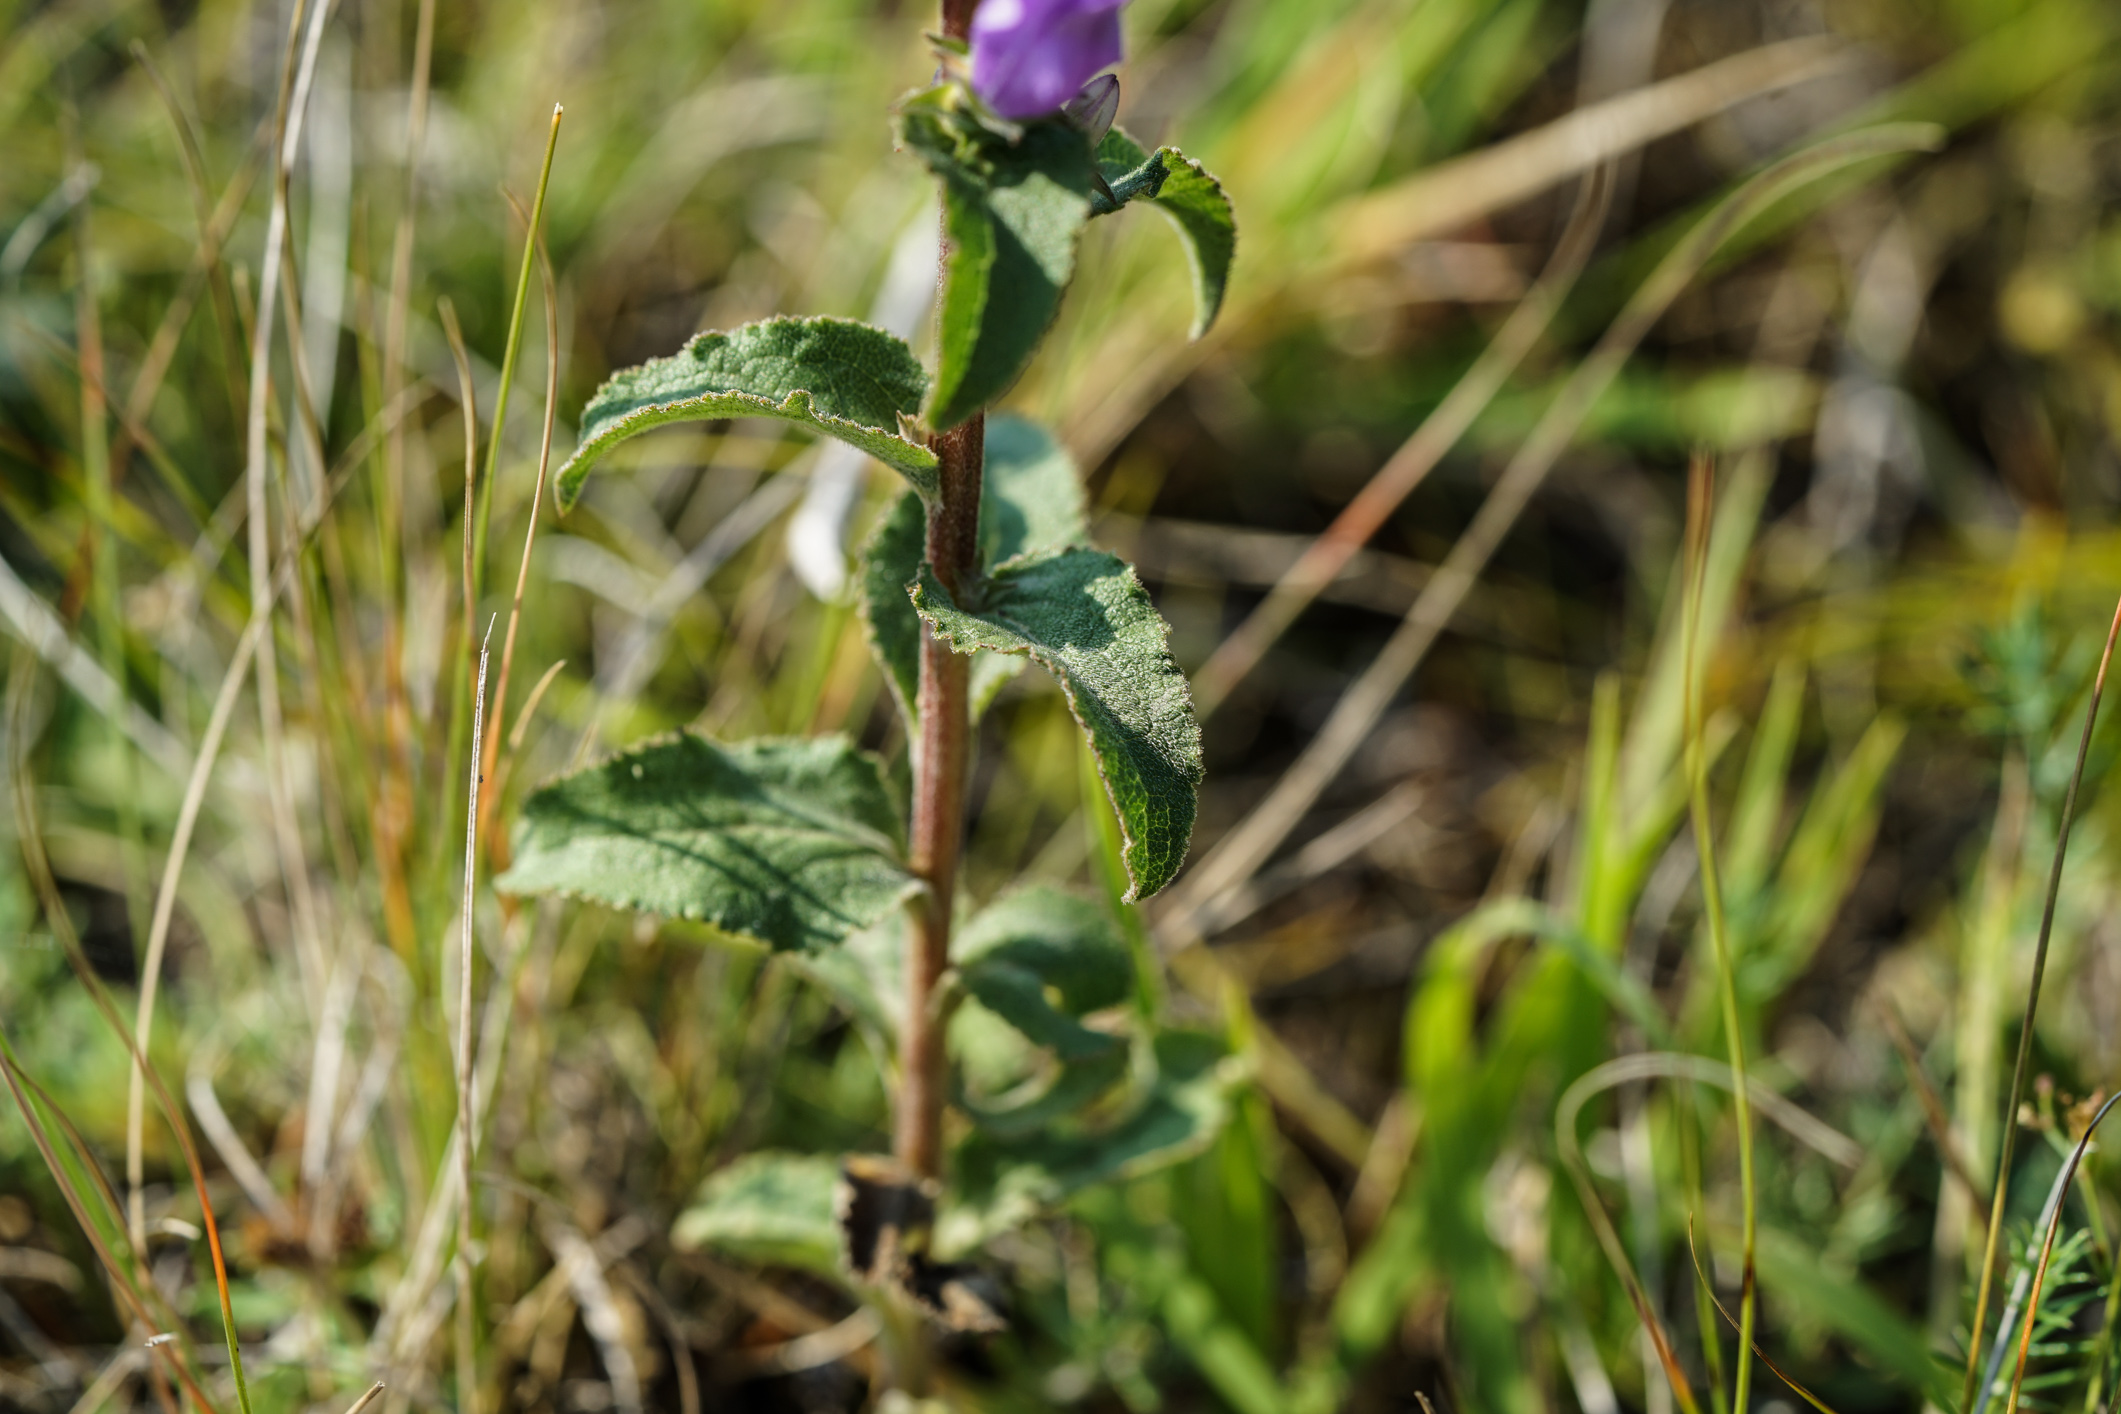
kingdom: Plantae
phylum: Tracheophyta
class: Magnoliopsida
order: Asterales
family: Campanulaceae
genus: Campanula
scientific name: Campanula glomerata
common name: Clustered bellflower
